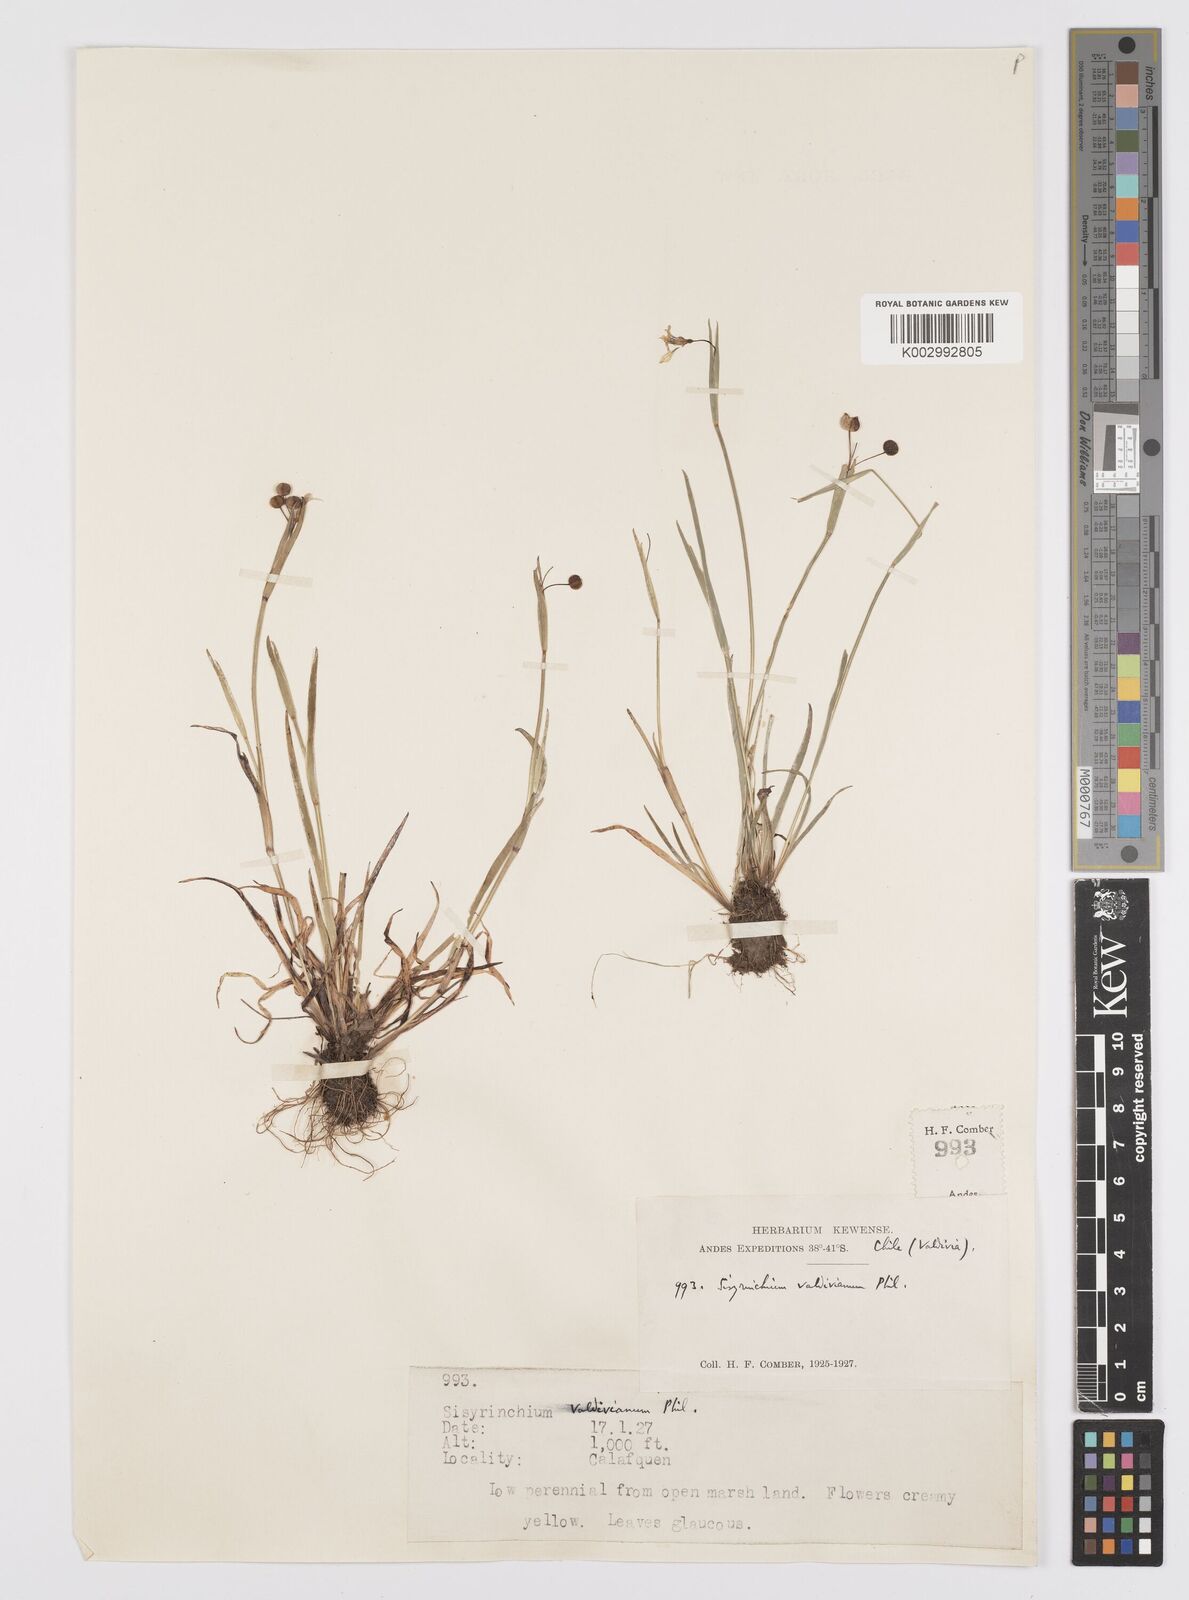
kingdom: Plantae
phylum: Tracheophyta
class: Liliopsida
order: Asparagales
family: Iridaceae
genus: Sisyrinchium
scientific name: Sisyrinchium chilense
